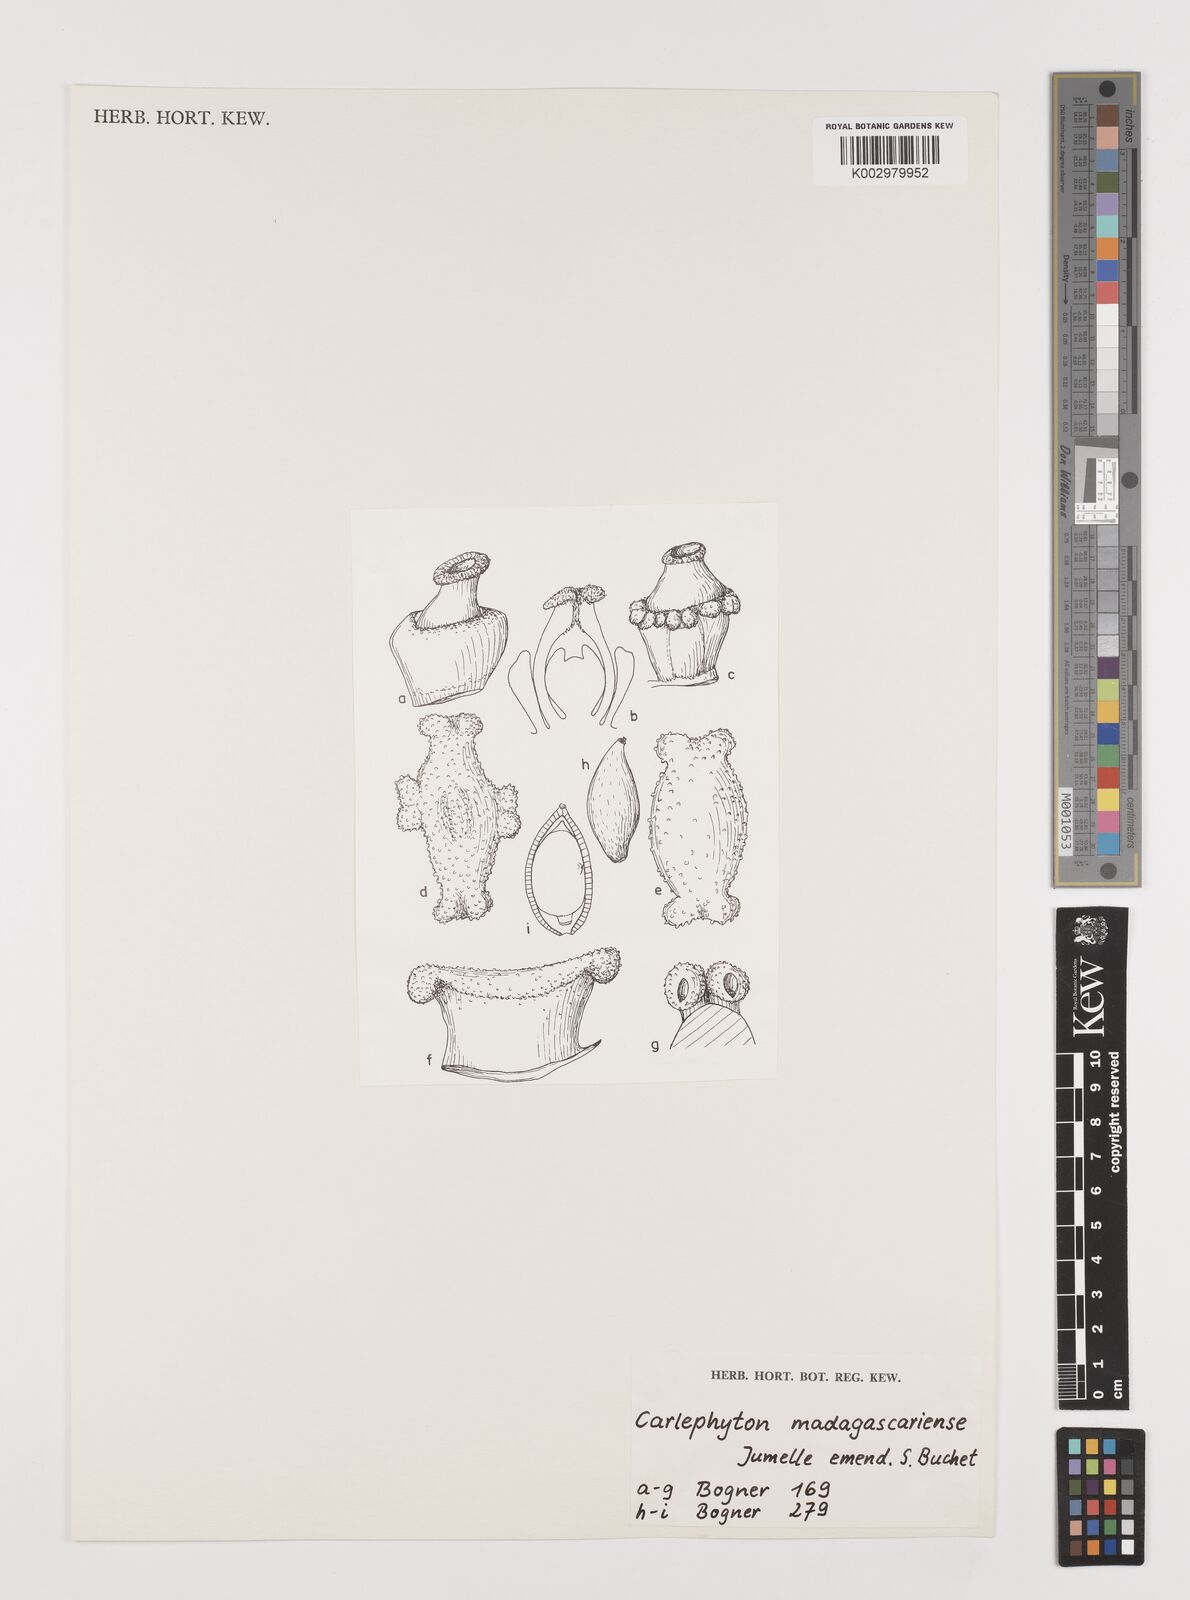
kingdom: Plantae
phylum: Tracheophyta
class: Liliopsida
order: Alismatales
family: Araceae
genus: Carlephyton
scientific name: Carlephyton madagascariense
